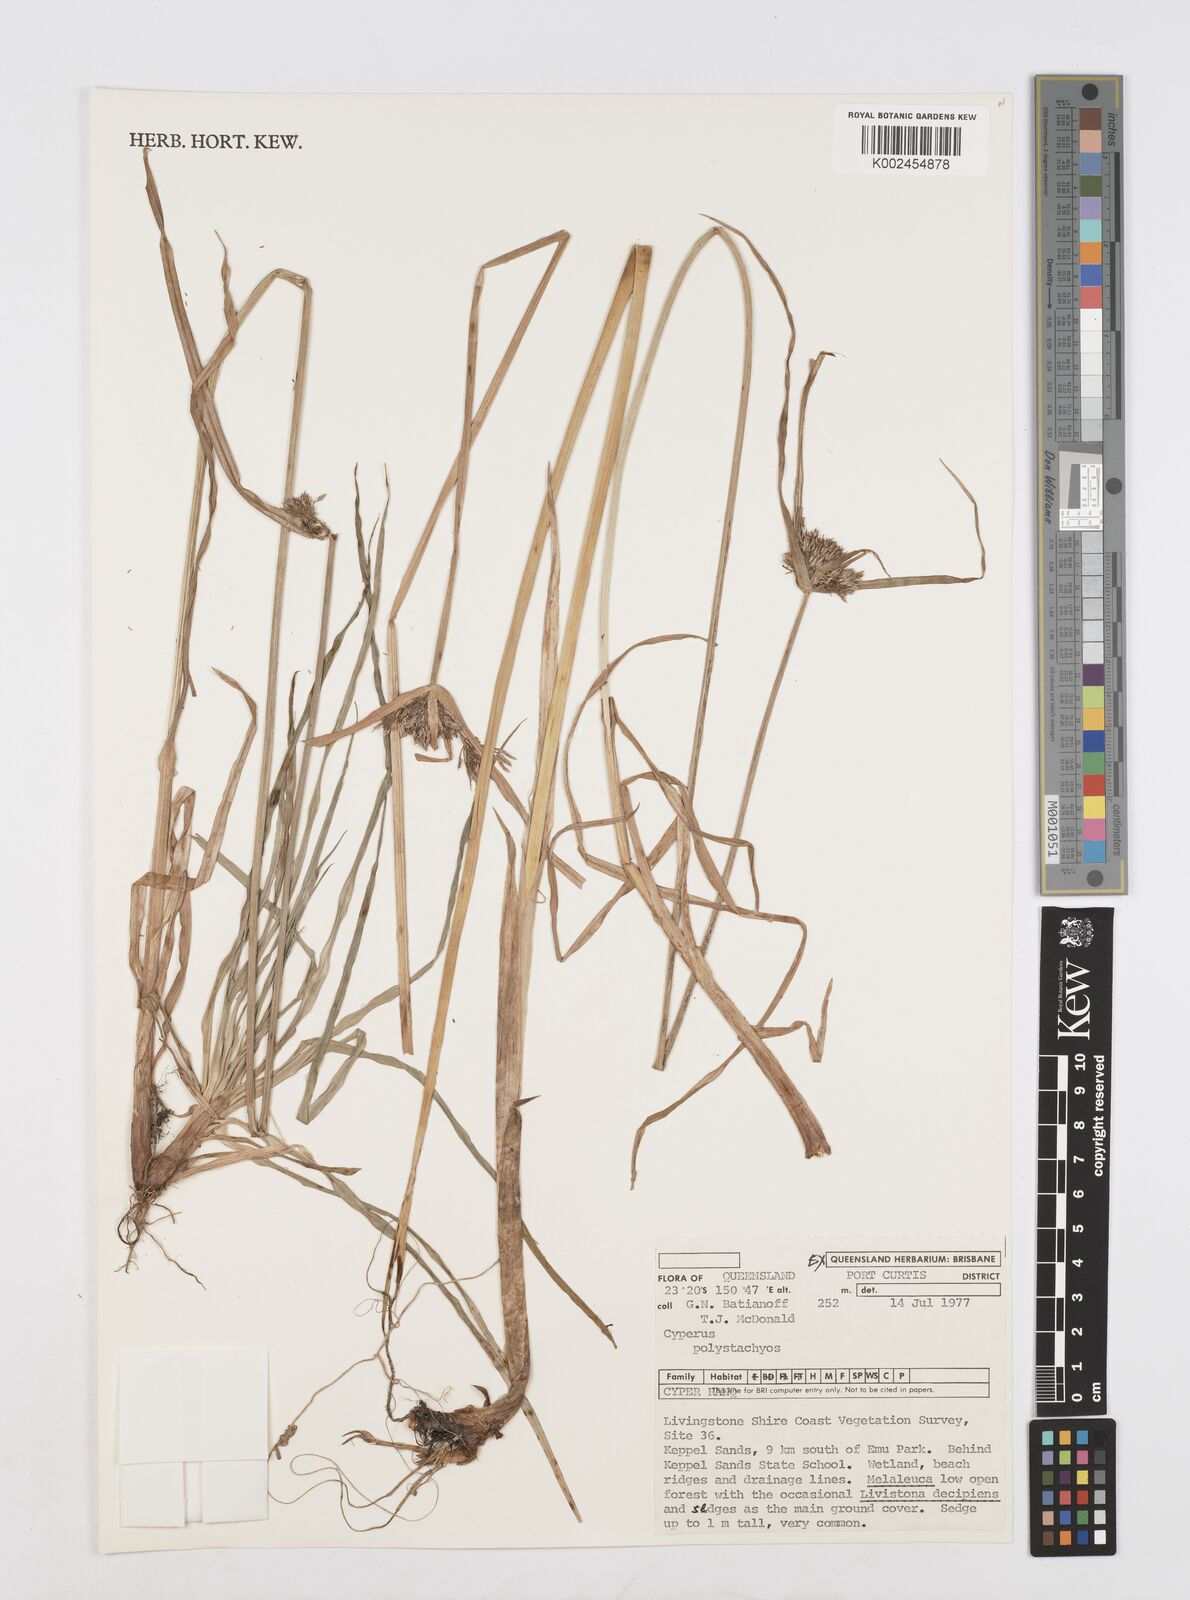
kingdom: Plantae
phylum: Tracheophyta
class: Liliopsida
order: Poales
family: Cyperaceae
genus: Cyperus
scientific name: Cyperus polystachyos
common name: Bunchy flat sedge
